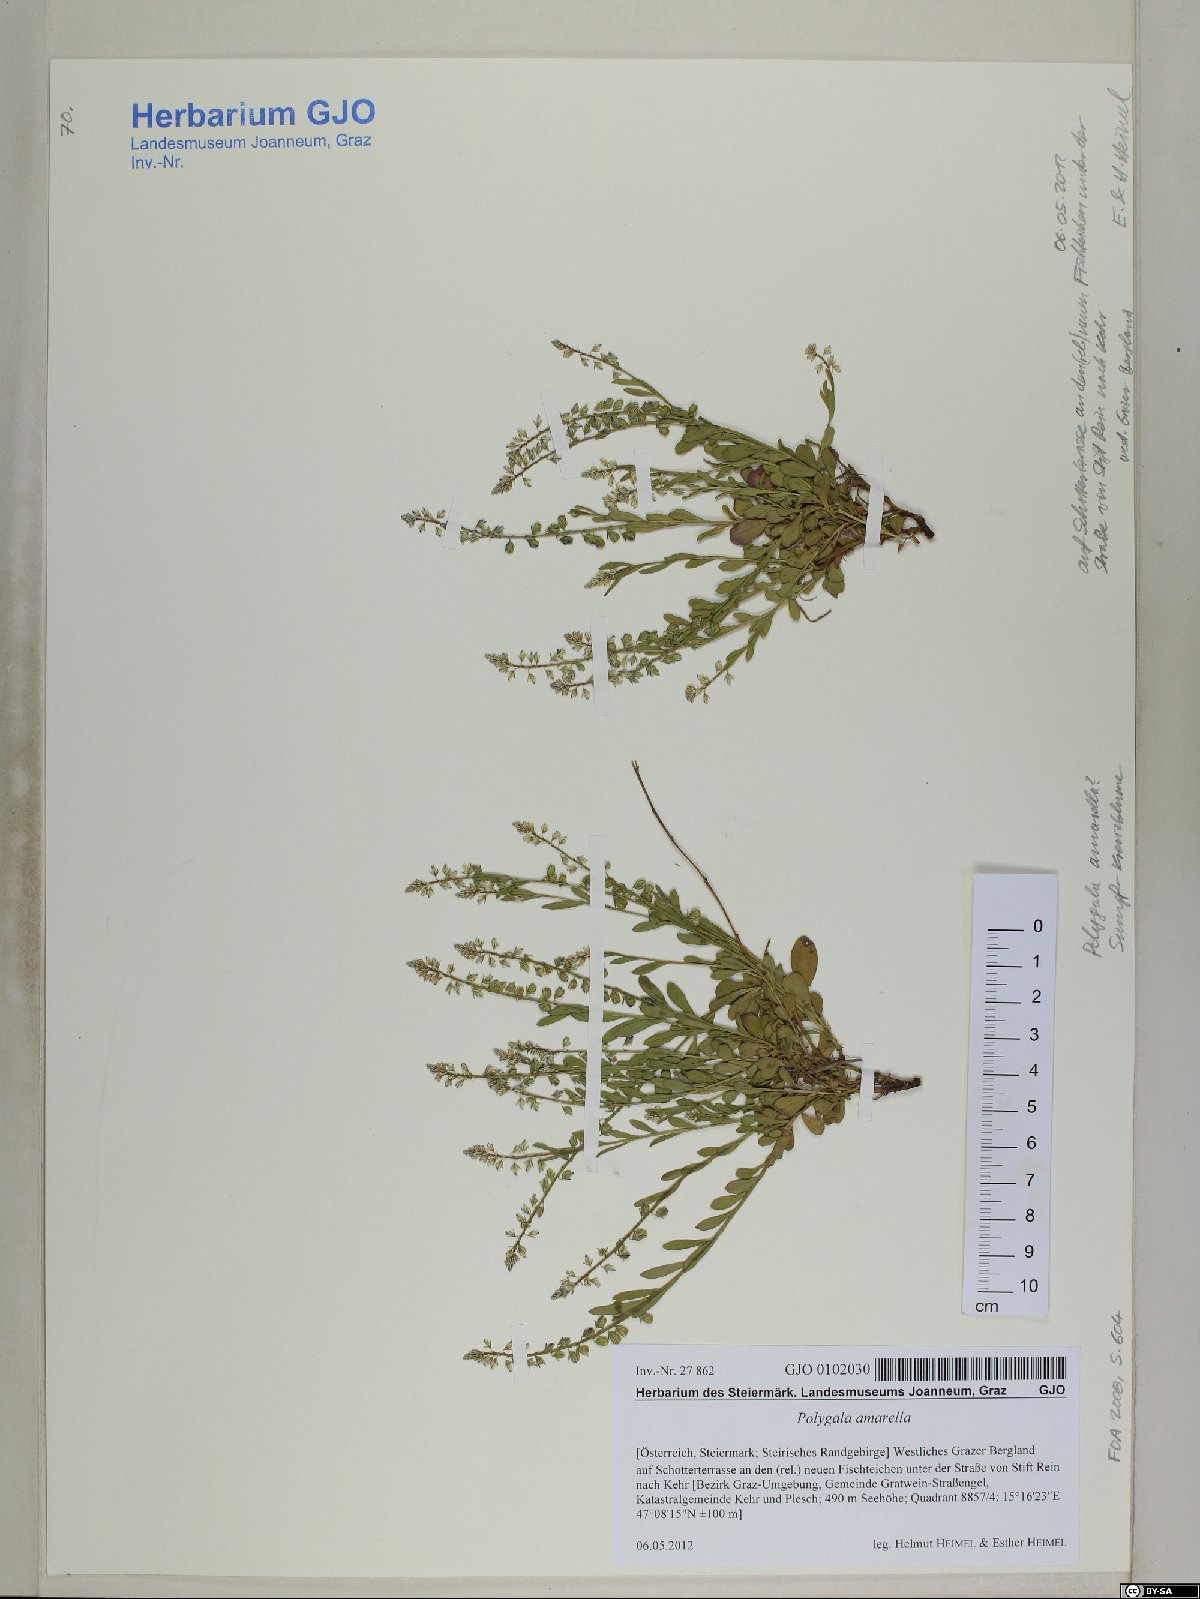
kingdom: Plantae
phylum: Tracheophyta
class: Magnoliopsida
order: Fabales
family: Polygalaceae
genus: Polygala
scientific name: Polygala amarella
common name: Dwarf milkwort
